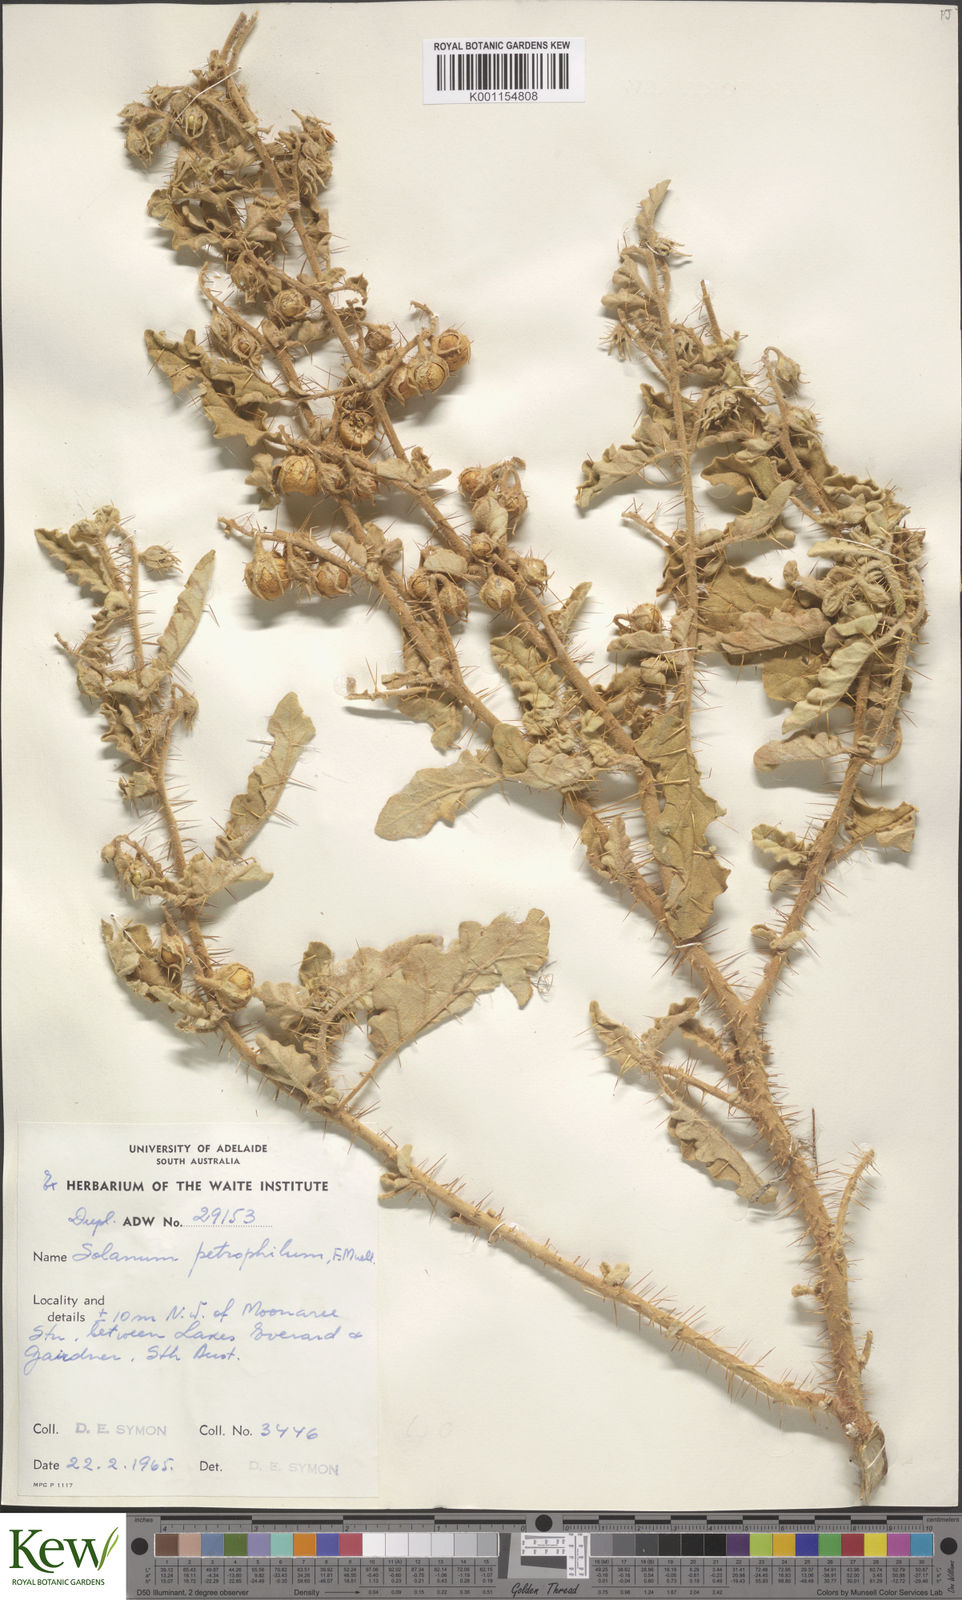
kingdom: Plantae
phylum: Tracheophyta
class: Magnoliopsida
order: Solanales
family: Solanaceae
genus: Solanum
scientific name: Solanum petrophilum
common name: Rock nightshade
